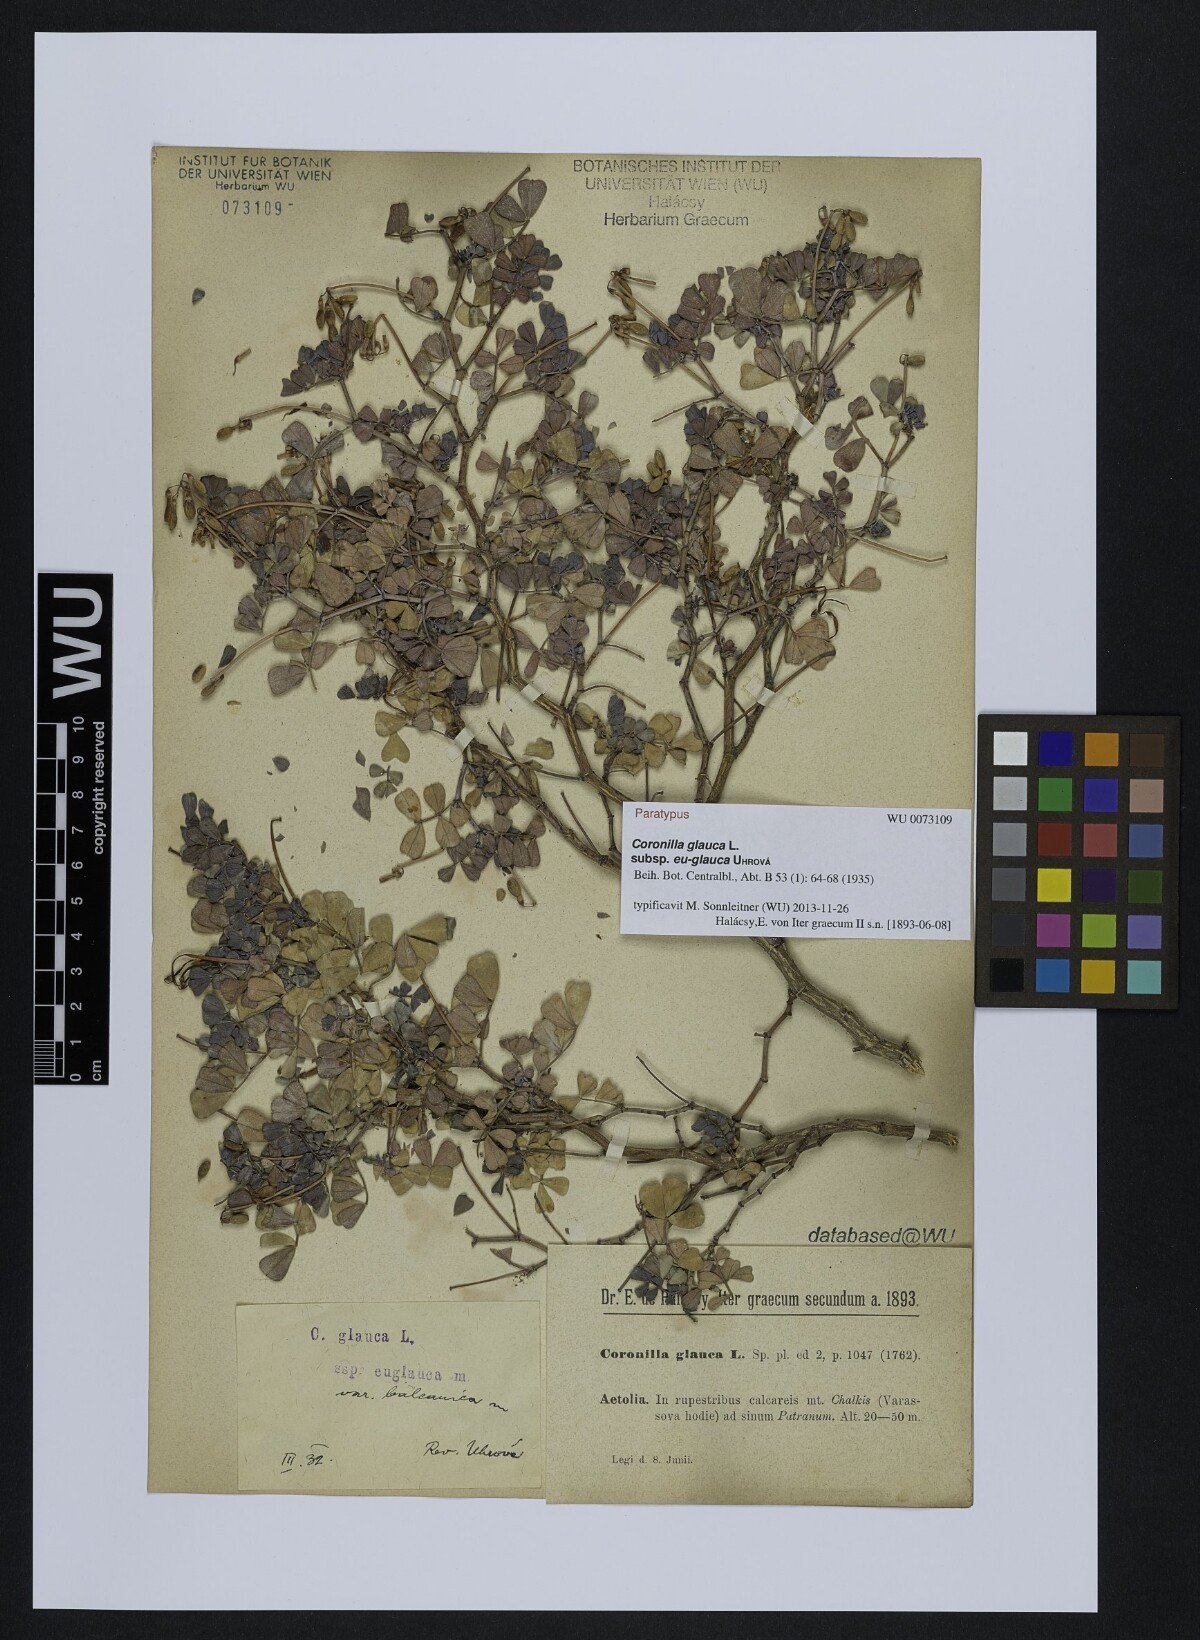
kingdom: Plantae
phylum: Tracheophyta
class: Magnoliopsida
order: Fabales
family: Fabaceae
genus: Coronilla
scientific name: Coronilla glauca
